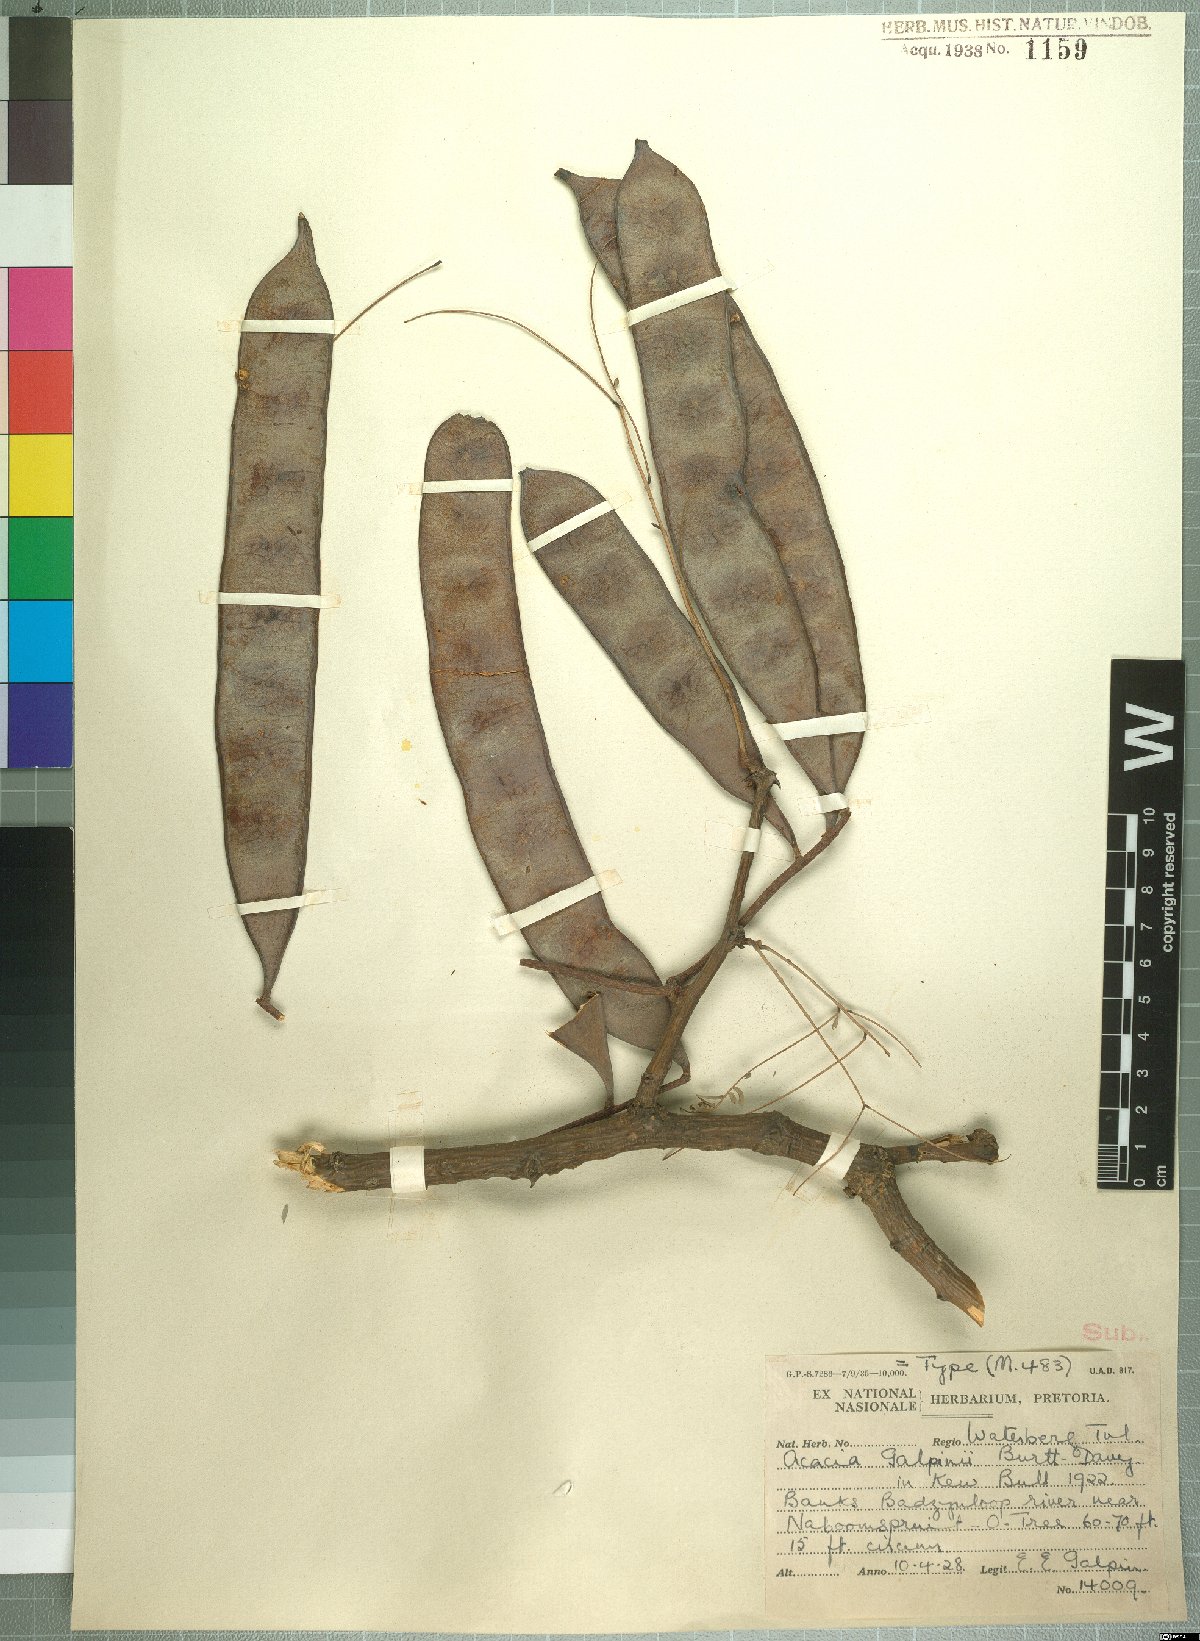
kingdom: Plantae
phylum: Tracheophyta
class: Magnoliopsida
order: Fabales
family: Fabaceae
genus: Senegalia
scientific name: Senegalia galpinii
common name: Monkey-thorn
